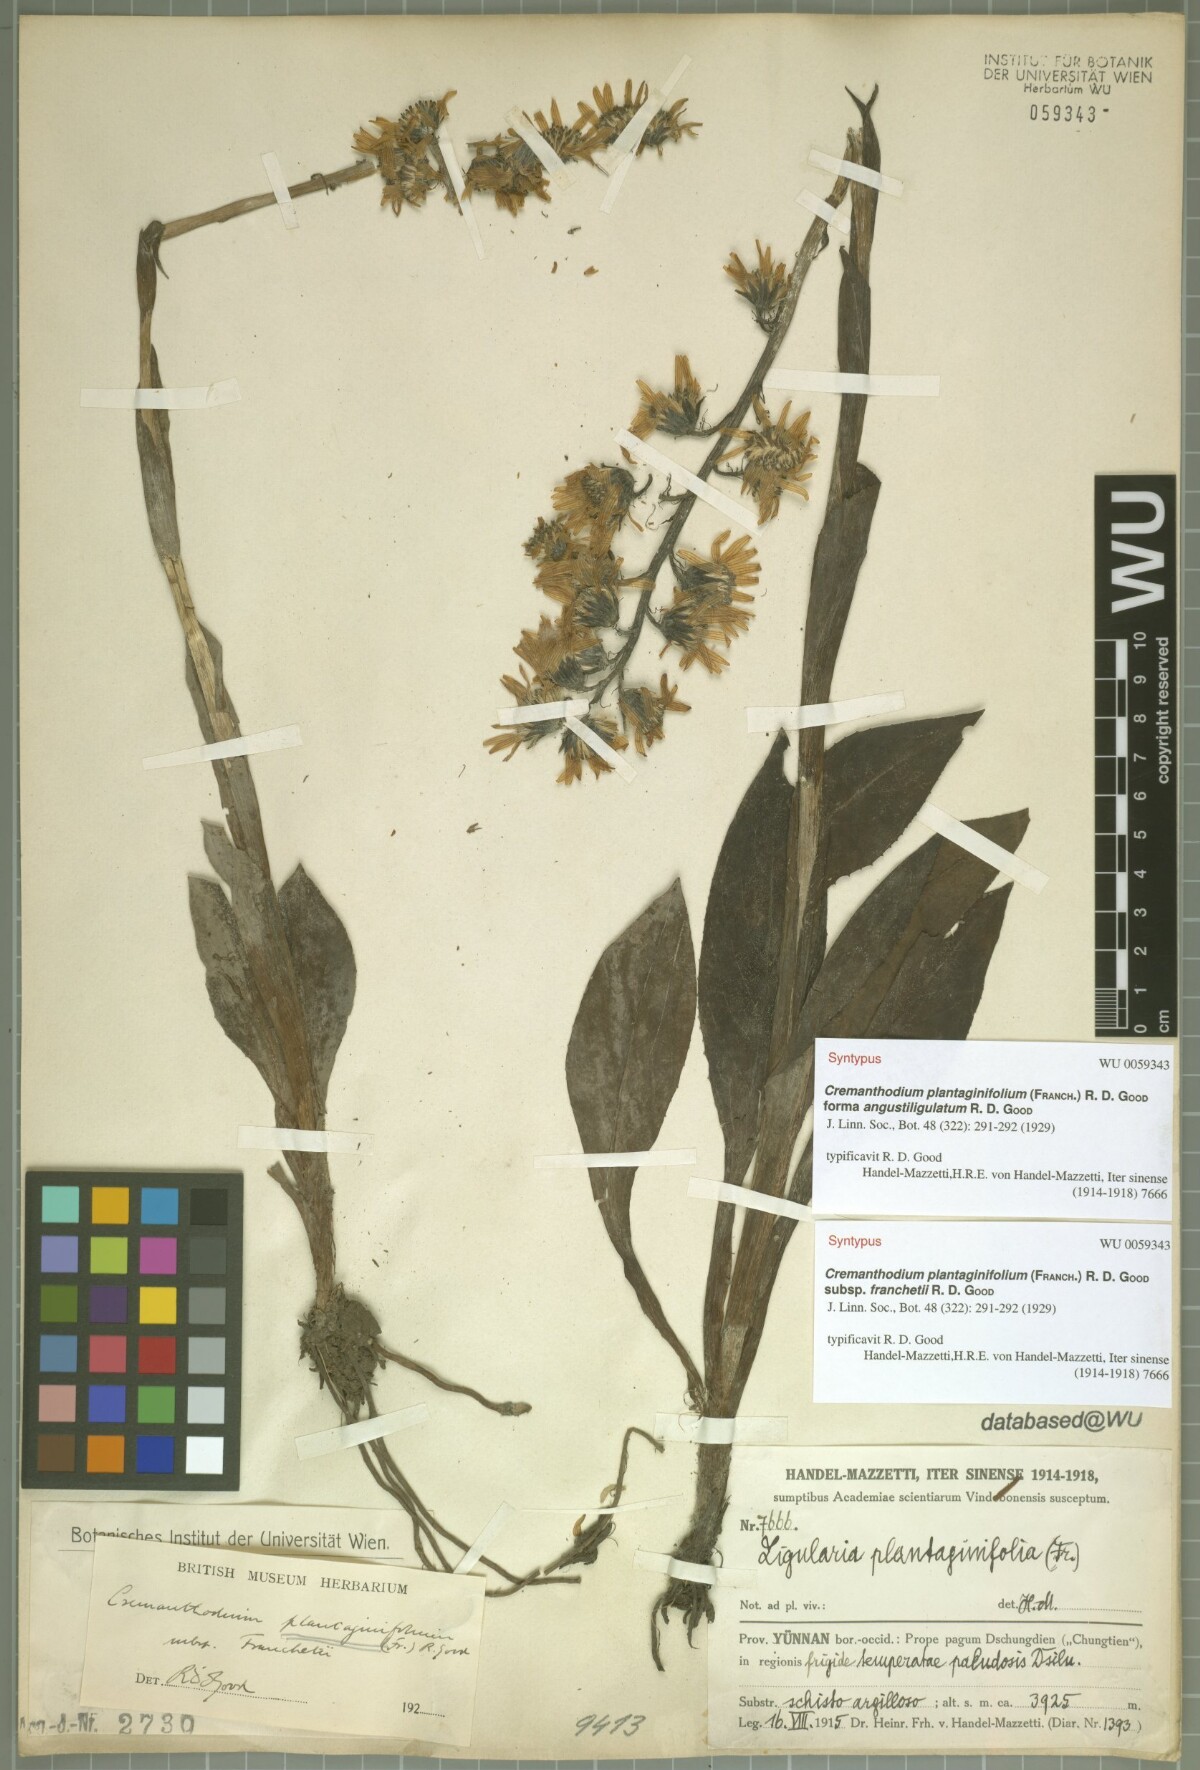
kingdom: Plantae
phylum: Tracheophyta
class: Magnoliopsida
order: Asterales
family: Asteraceae
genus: Ligularia
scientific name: Ligularia virgaurea
